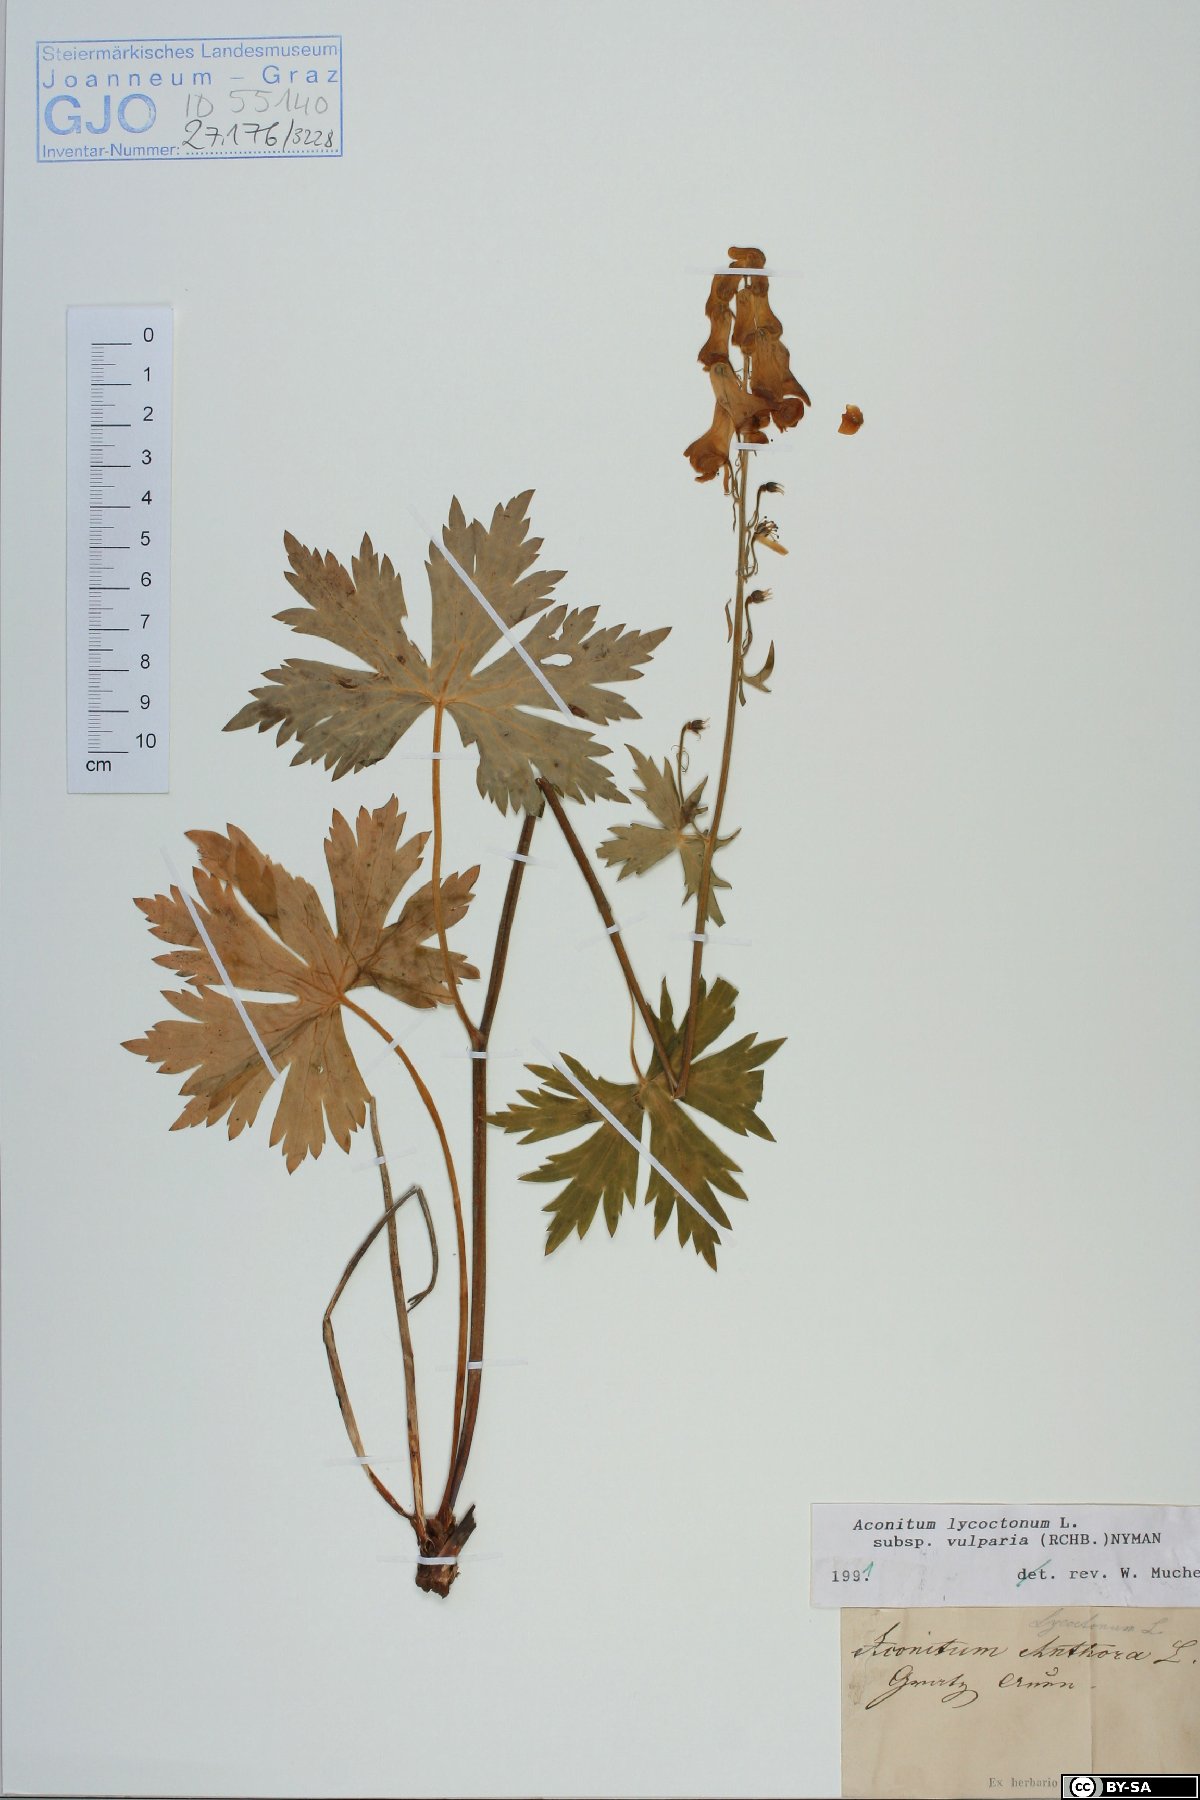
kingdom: Plantae
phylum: Tracheophyta
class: Magnoliopsida
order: Ranunculales
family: Ranunculaceae
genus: Aconitum
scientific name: Aconitum lycoctonum
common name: Wolf's-bane
